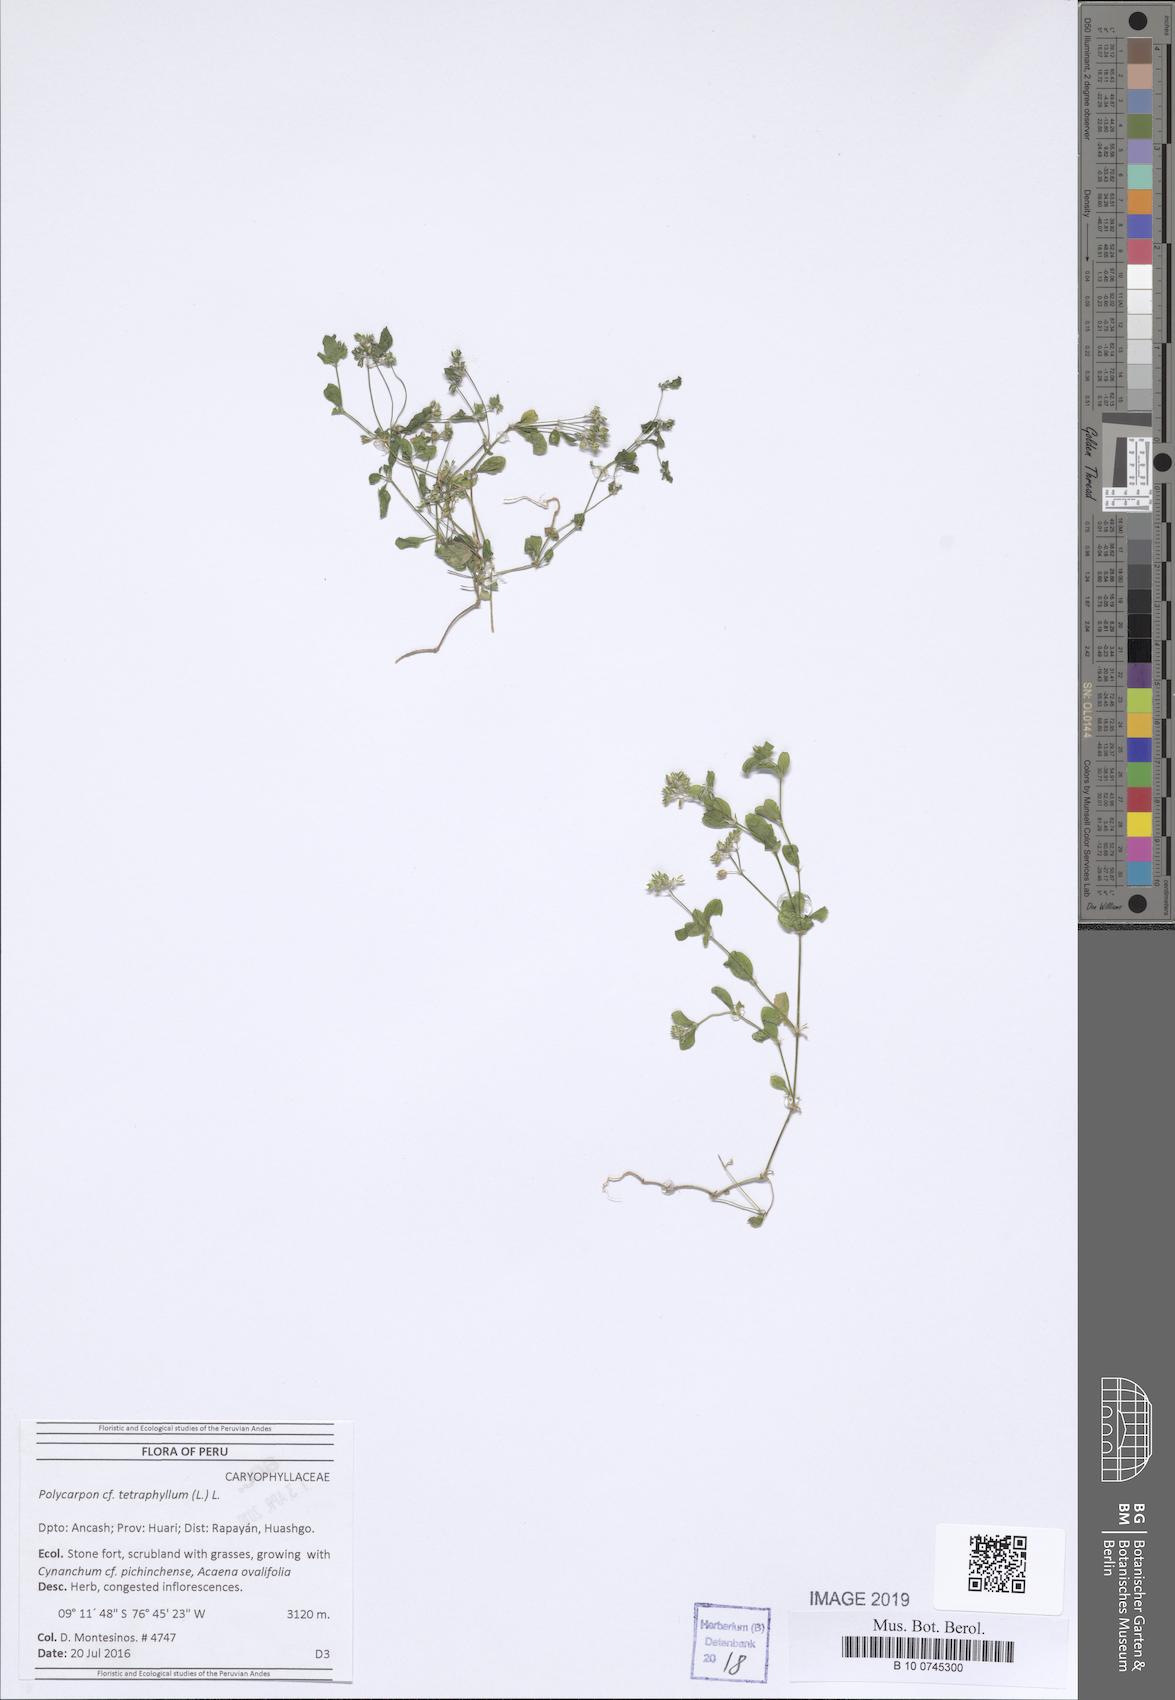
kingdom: Plantae
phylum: Tracheophyta
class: Magnoliopsida
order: Caryophyllales
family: Caryophyllaceae
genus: Polycarpon
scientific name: Polycarpon tetraphyllum
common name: Four-leaved all-seed
